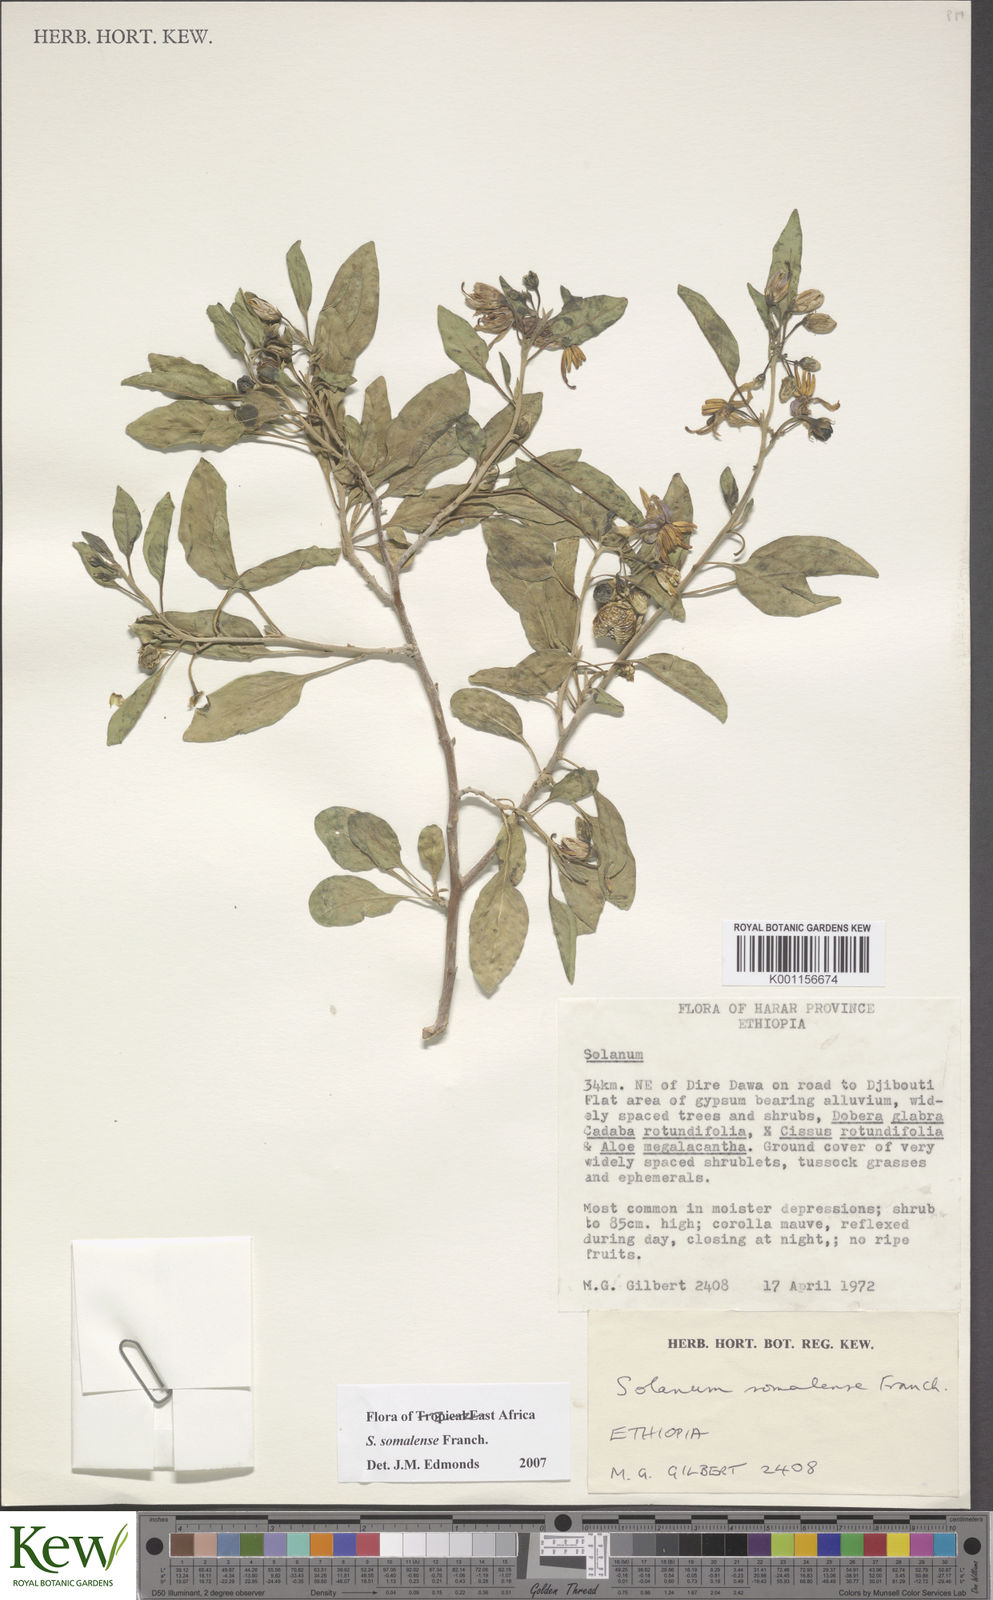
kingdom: Plantae
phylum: Tracheophyta
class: Magnoliopsida
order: Solanales
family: Solanaceae
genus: Solanum
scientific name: Solanum somalense
